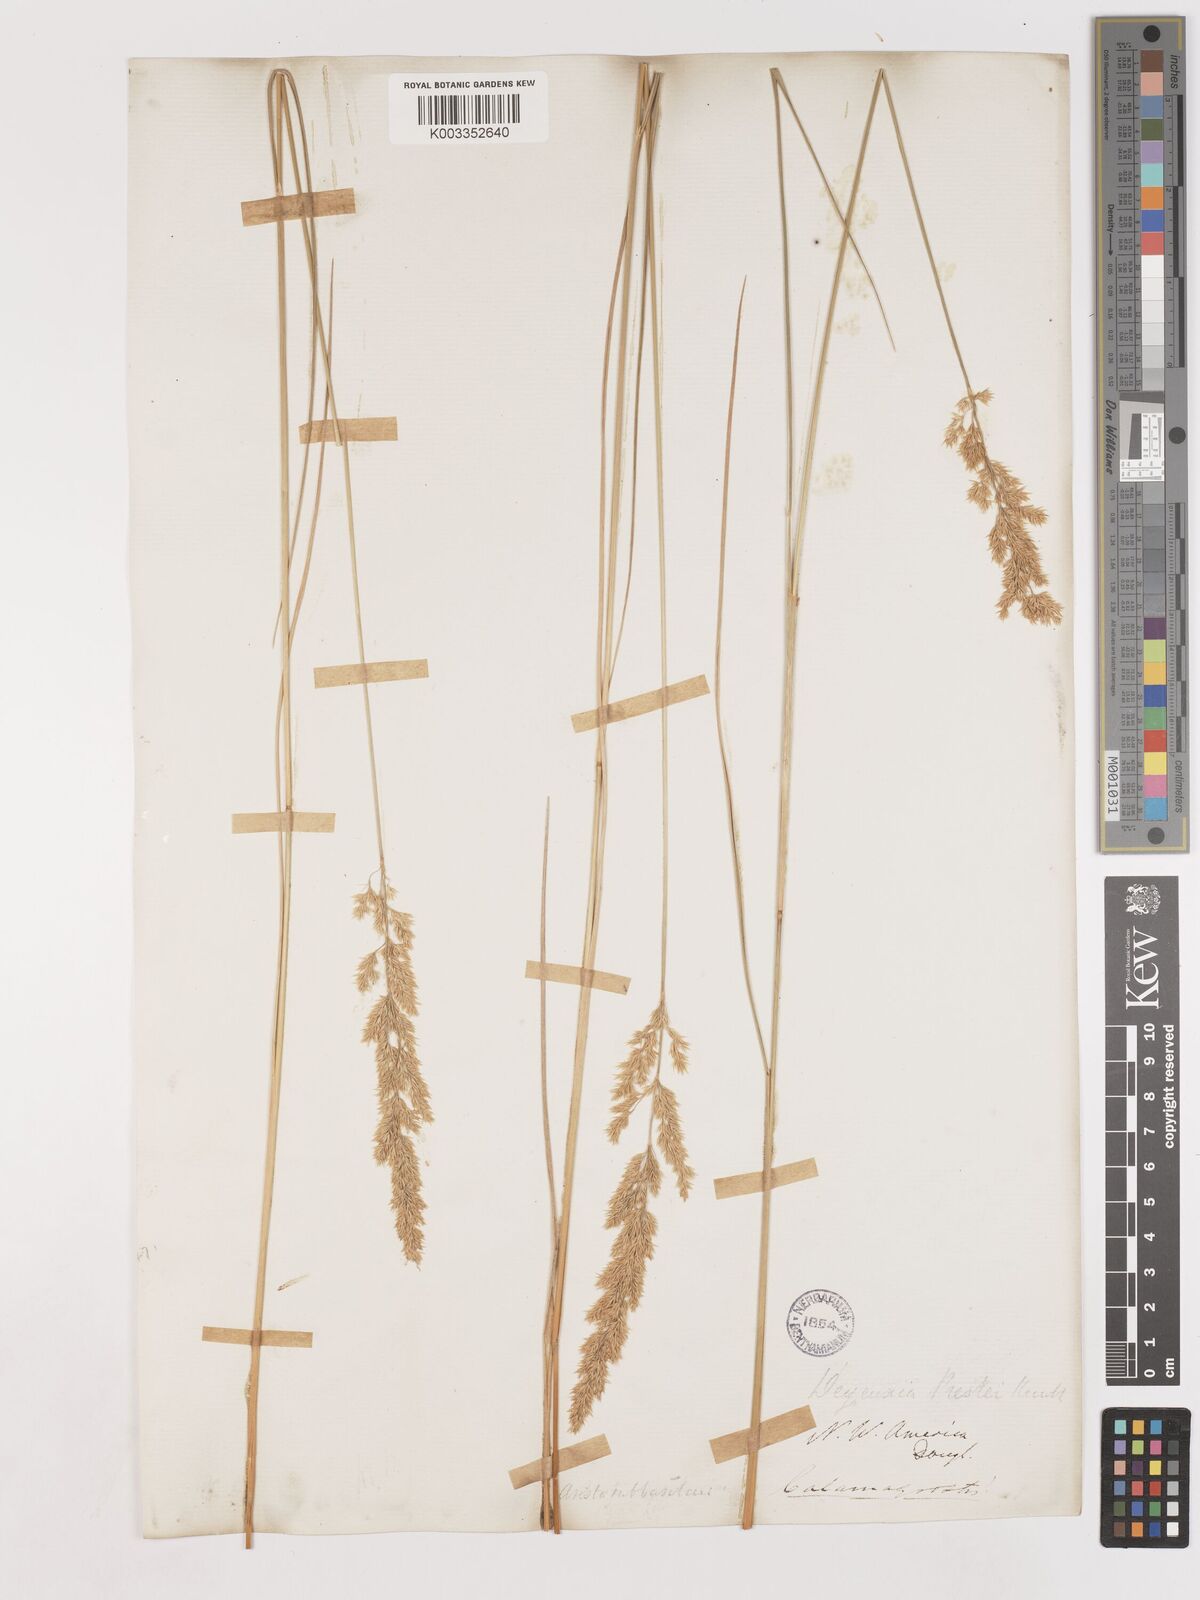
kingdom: Plantae
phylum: Tracheophyta
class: Liliopsida
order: Poales
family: Poaceae
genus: Calamagrostis
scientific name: Calamagrostis canadensis
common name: Canada bluejoint
